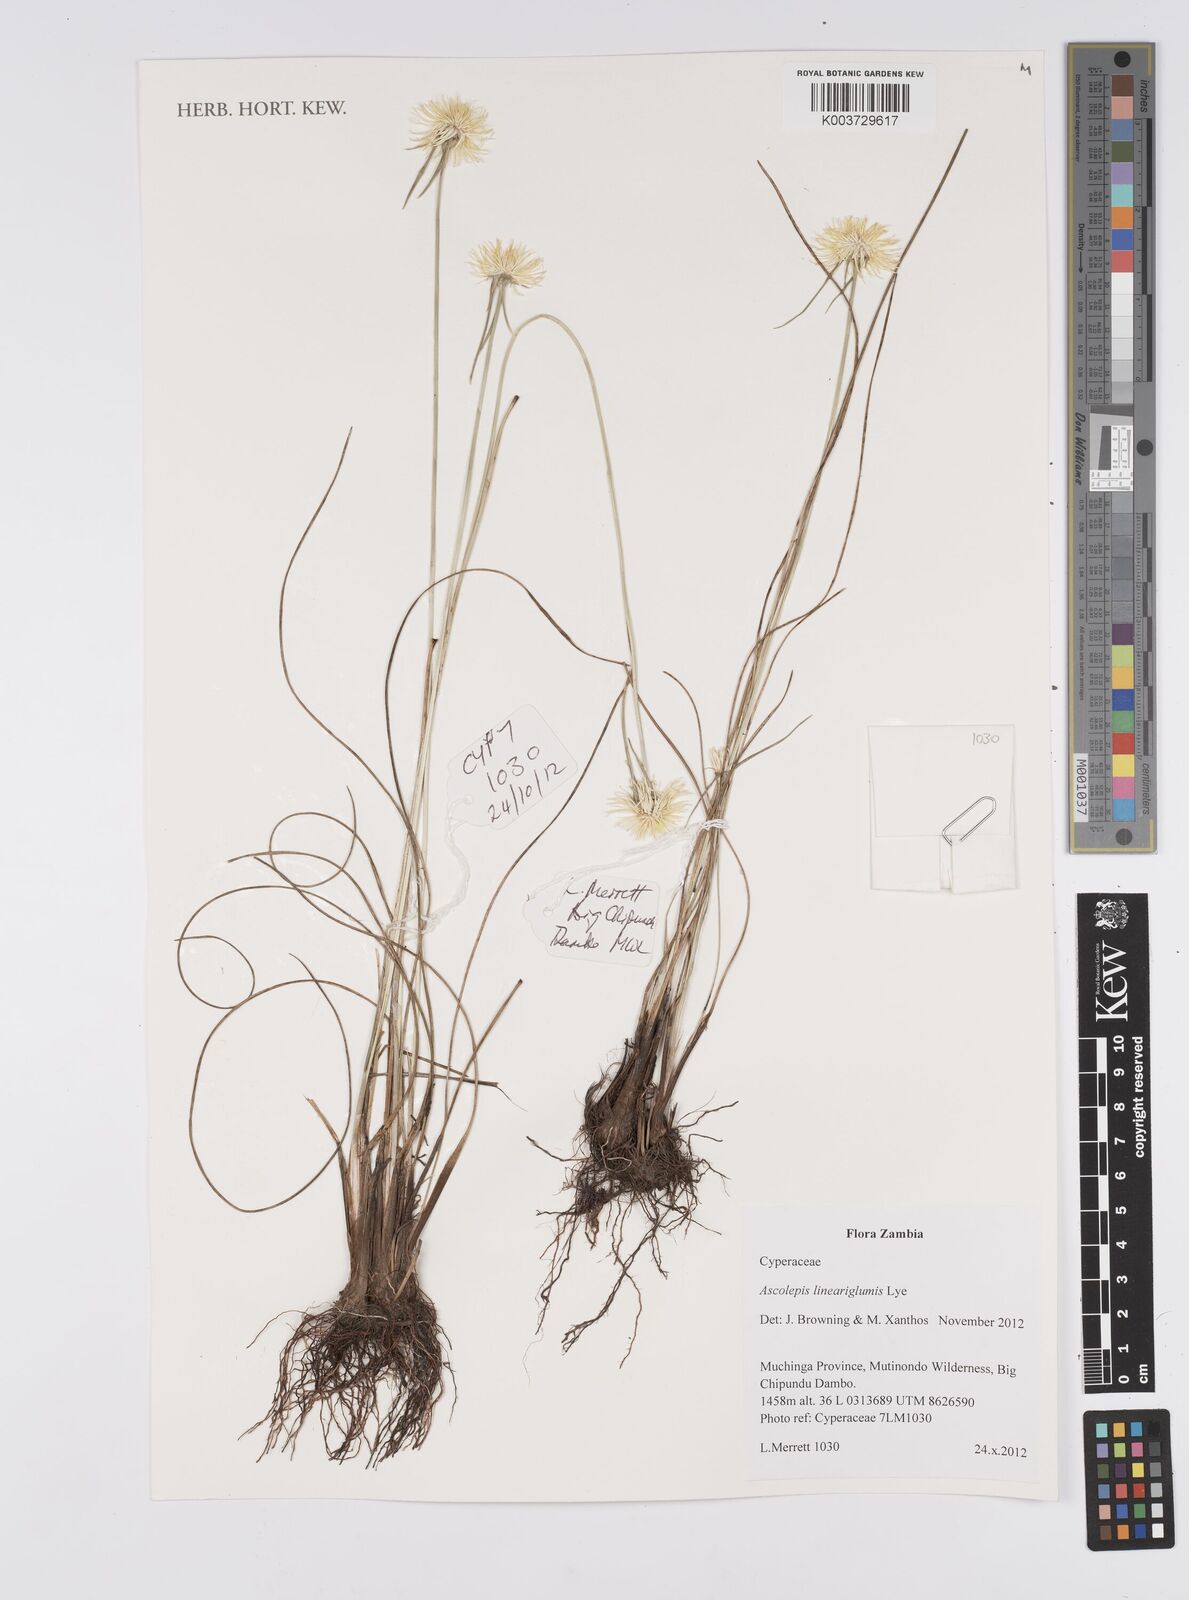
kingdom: Plantae
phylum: Tracheophyta
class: Liliopsida
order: Poales
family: Cyperaceae
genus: Cyperus
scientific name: Cyperus
